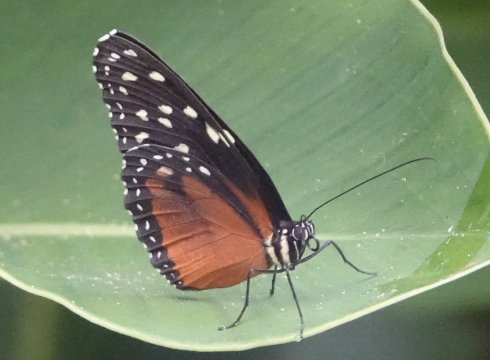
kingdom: Animalia
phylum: Arthropoda
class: Insecta
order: Lepidoptera
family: Nymphalidae
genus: Tithorea
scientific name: Tithorea tarricina
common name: Cream-spotted Tigerwing
